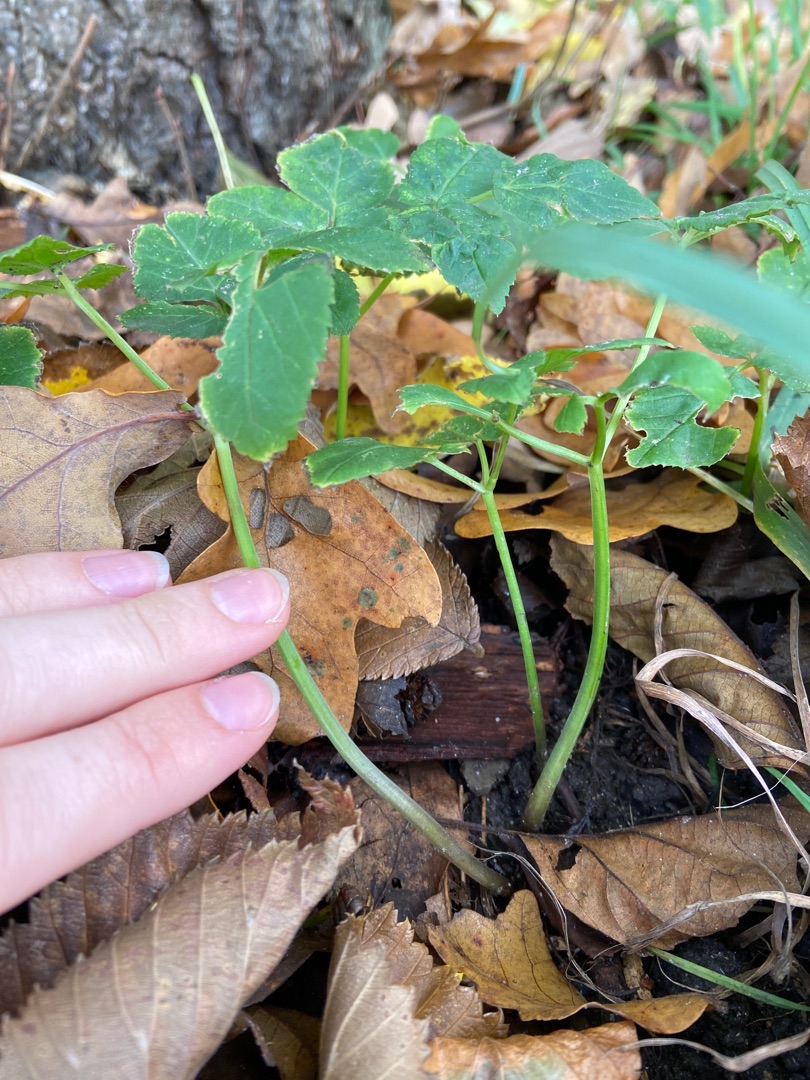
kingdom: Plantae
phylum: Tracheophyta
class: Magnoliopsida
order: Apiales
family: Apiaceae
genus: Aegopodium
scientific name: Aegopodium podagraria
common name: Skvalderkål
